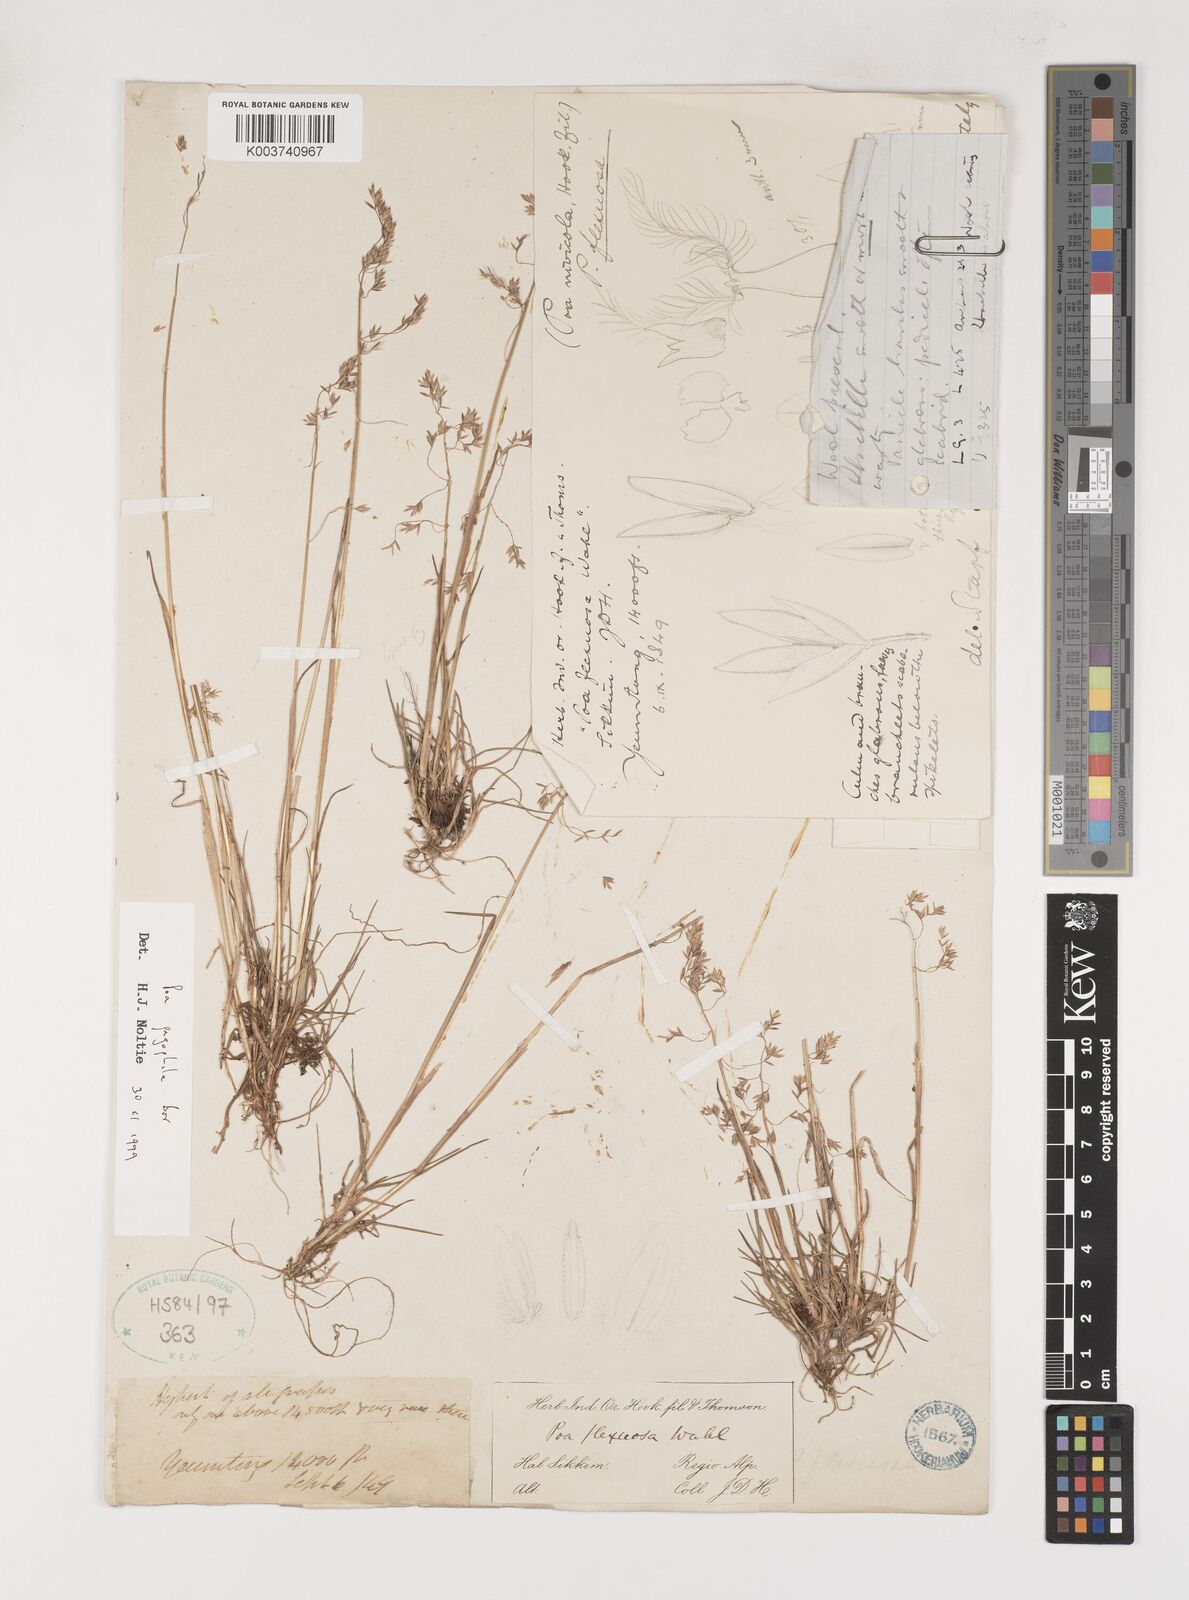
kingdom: Plantae
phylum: Tracheophyta
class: Liliopsida
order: Poales
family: Poaceae
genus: Poa
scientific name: Poa pagophila
